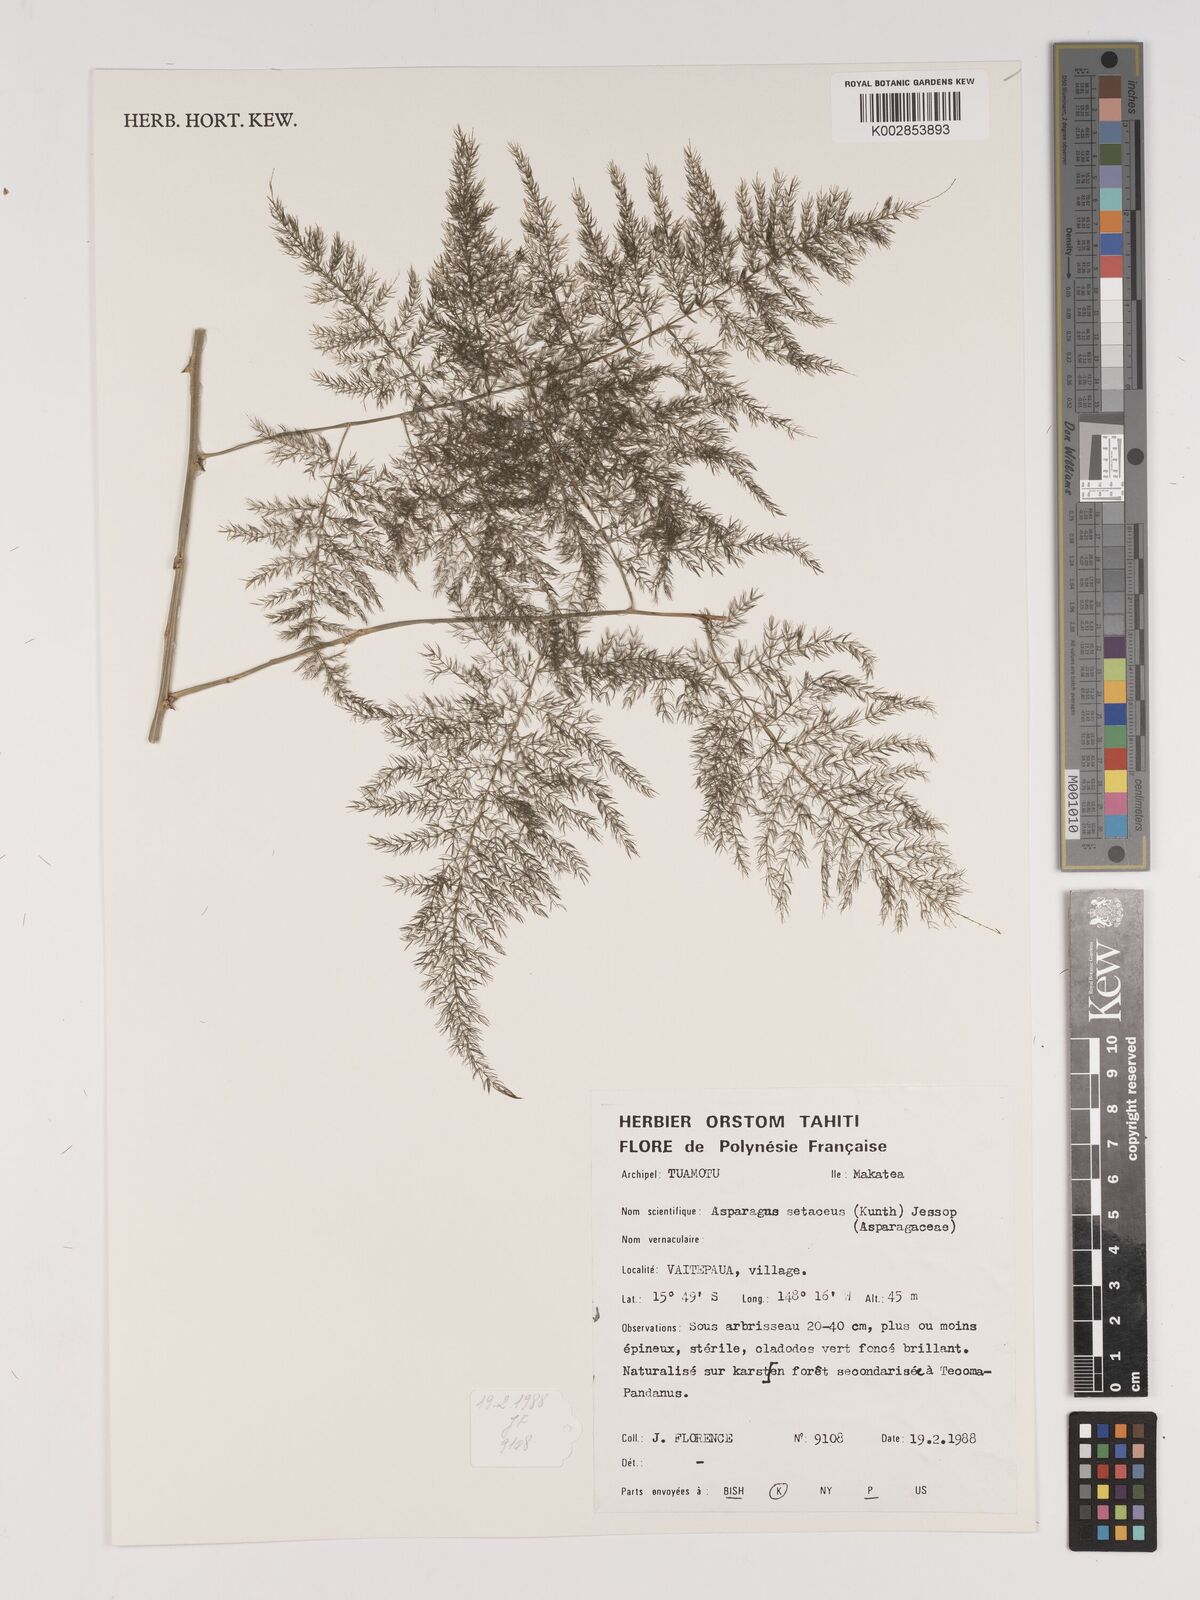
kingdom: Plantae
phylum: Tracheophyta
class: Liliopsida
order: Asparagales
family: Asparagaceae
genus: Asparagus
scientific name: Asparagus setaceus
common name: Common asparagus fern
